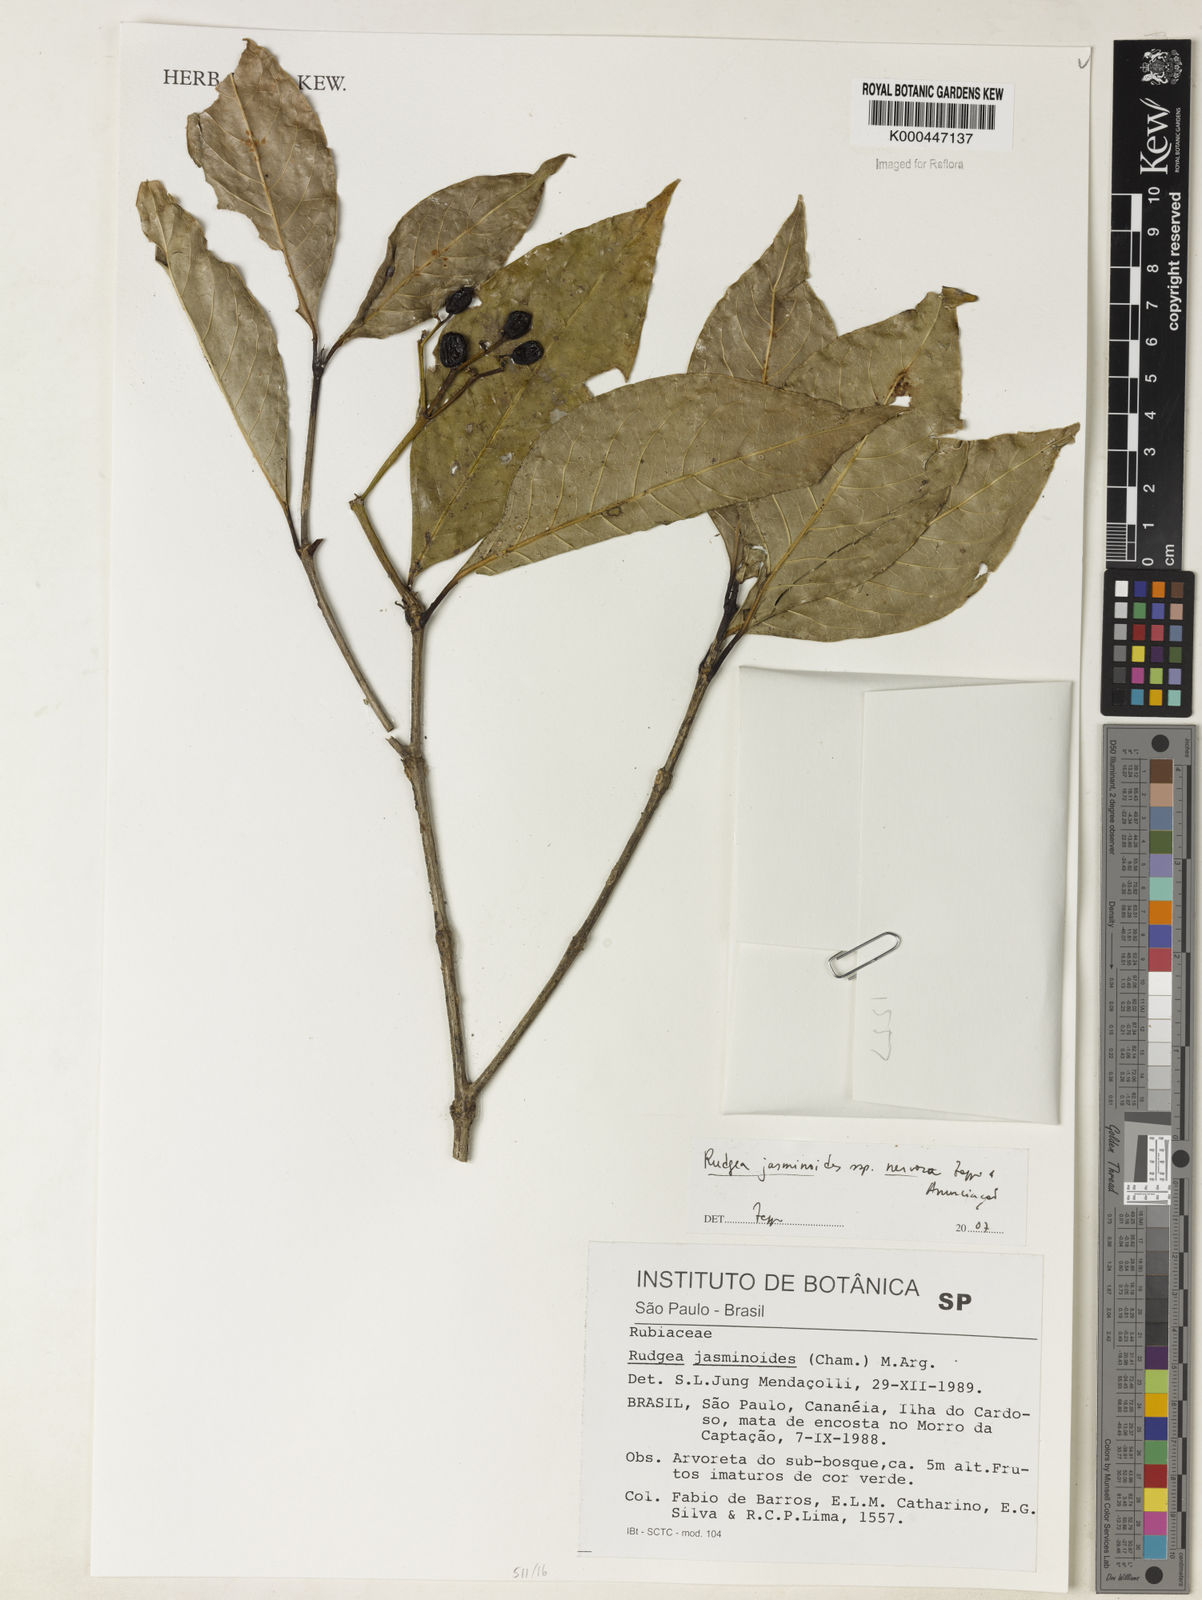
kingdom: Plantae
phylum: Tracheophyta
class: Magnoliopsida
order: Gentianales
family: Rubiaceae
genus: Rudgea
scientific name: Rudgea jasminoides
